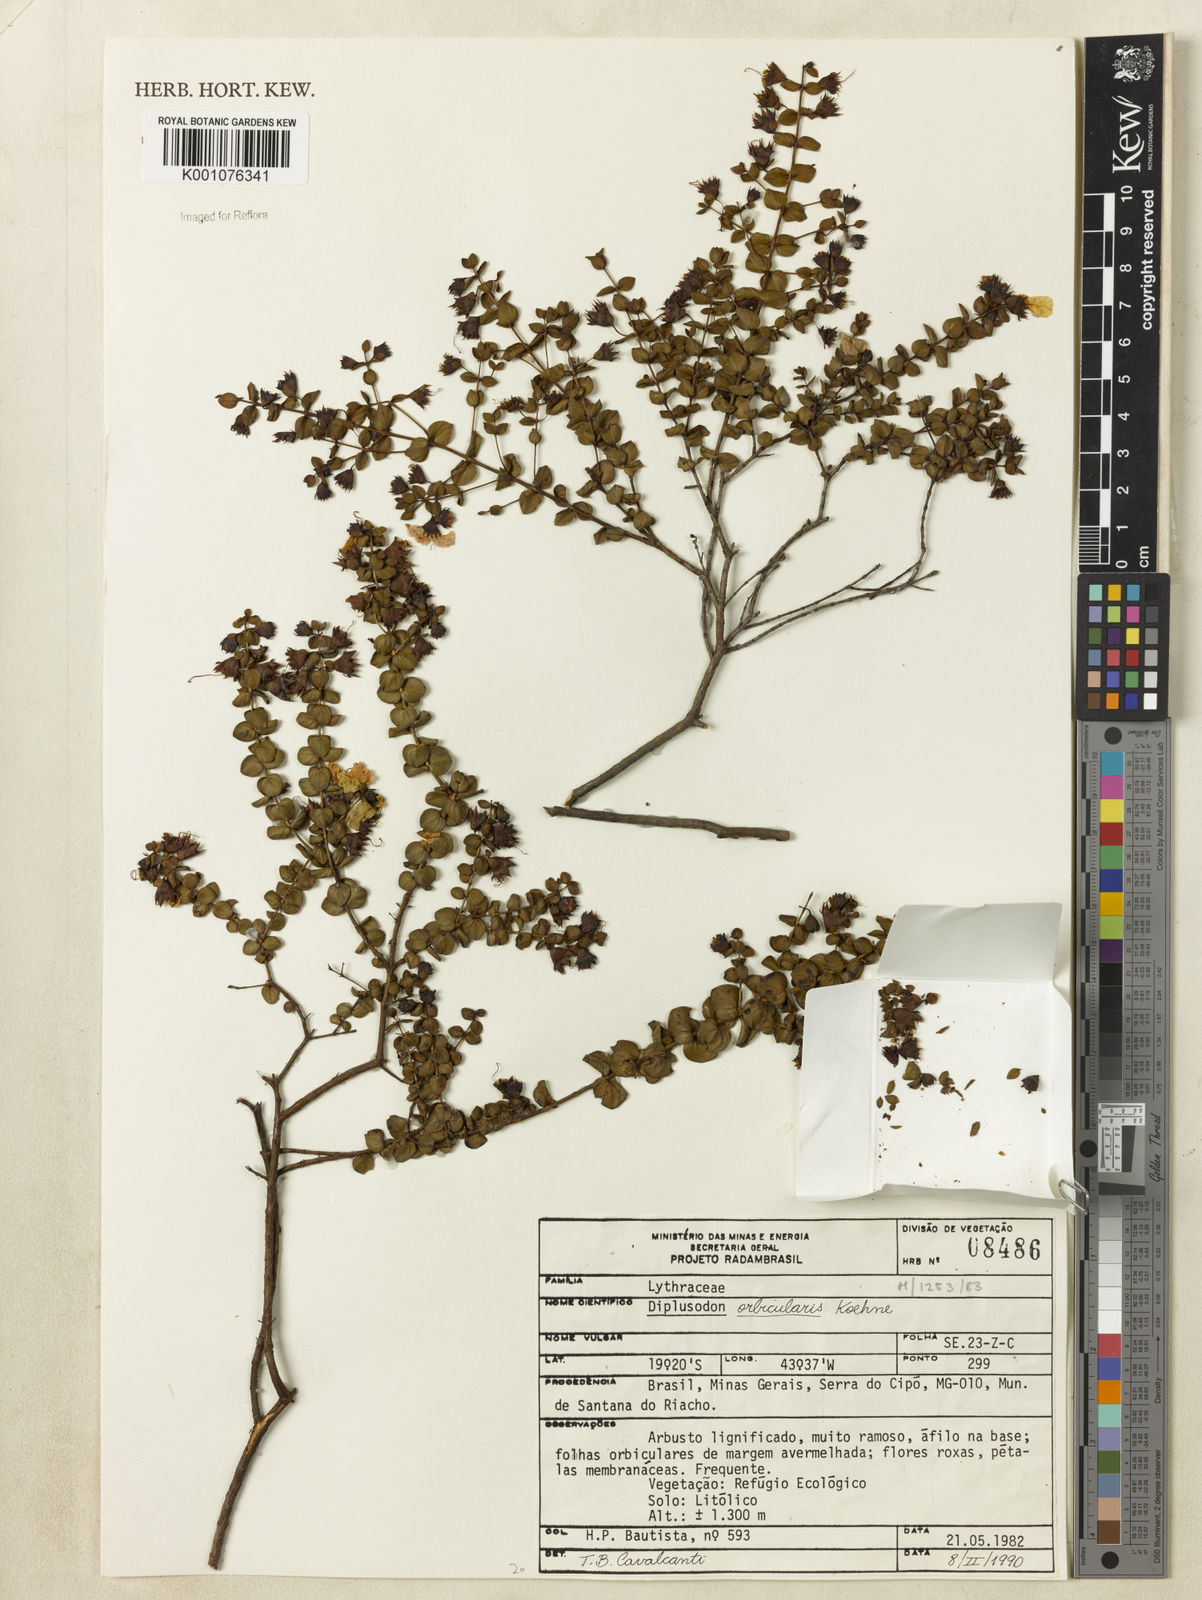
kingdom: Plantae
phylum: Tracheophyta
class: Magnoliopsida
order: Myrtales
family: Lythraceae
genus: Diplusodon
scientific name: Diplusodon orbicularis
